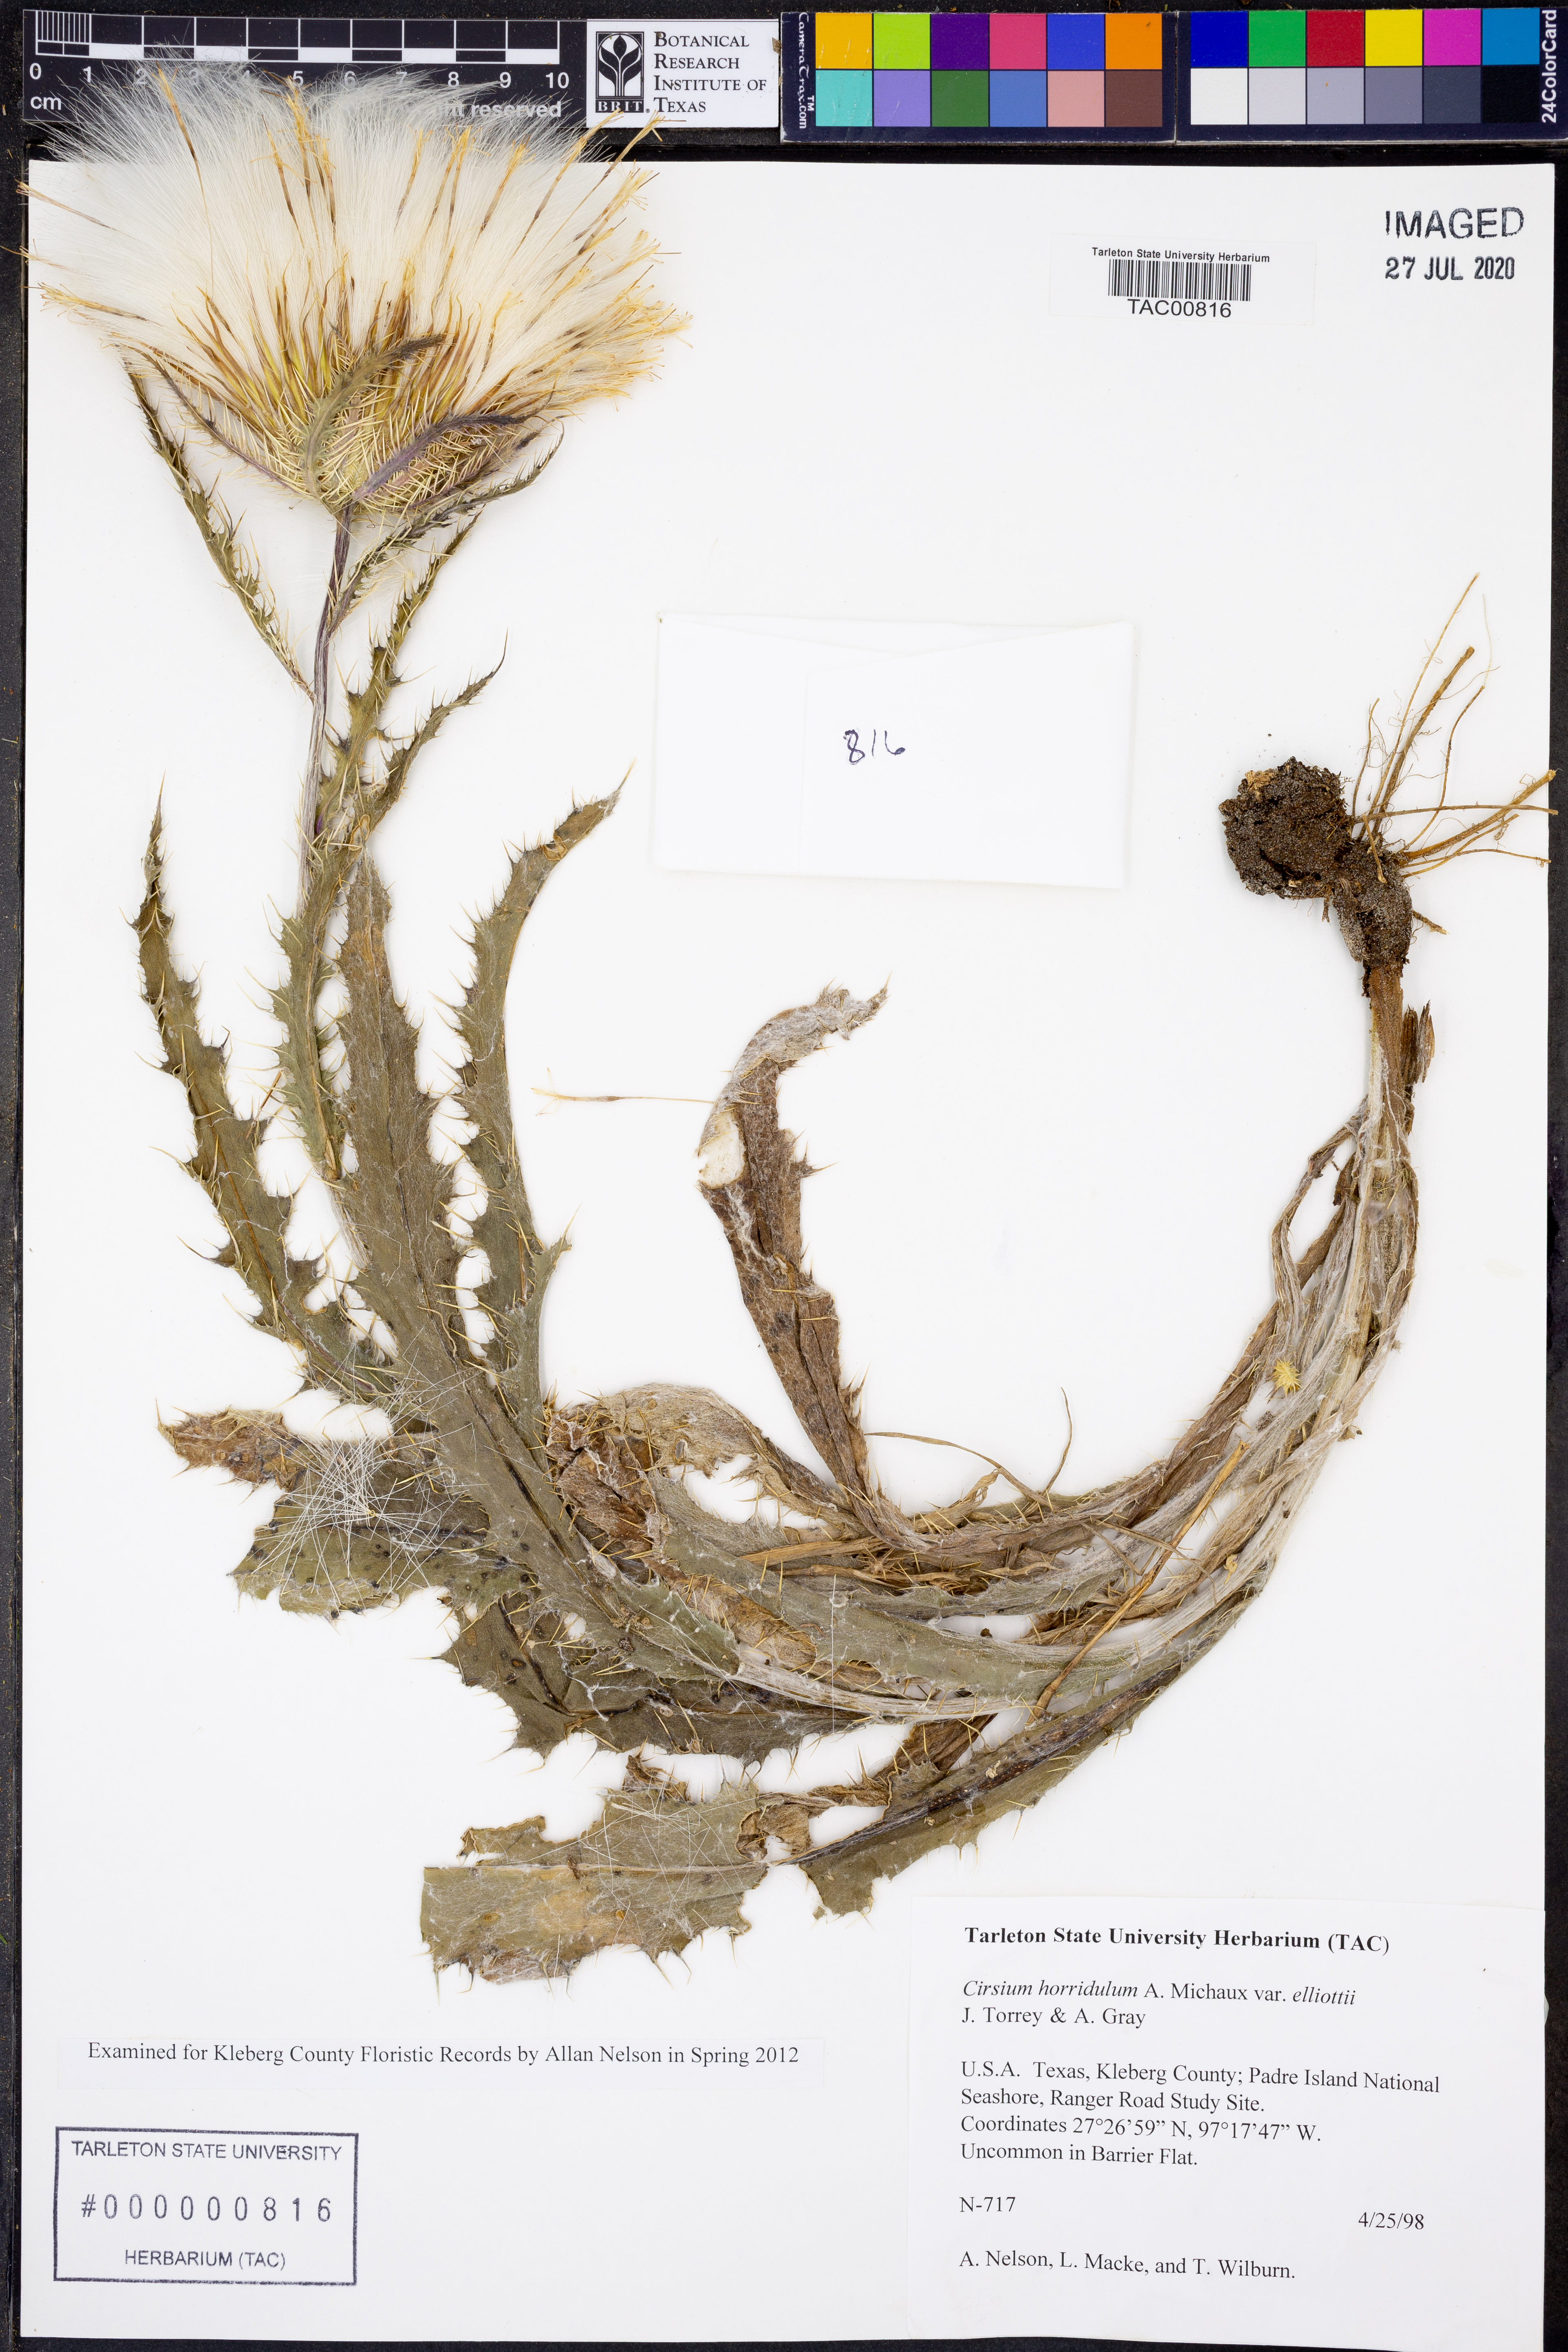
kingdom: Plantae
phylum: Tracheophyta
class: Magnoliopsida
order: Asterales
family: Asteraceae
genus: Cirsium
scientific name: Cirsium horridulum
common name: Bristly thistle
